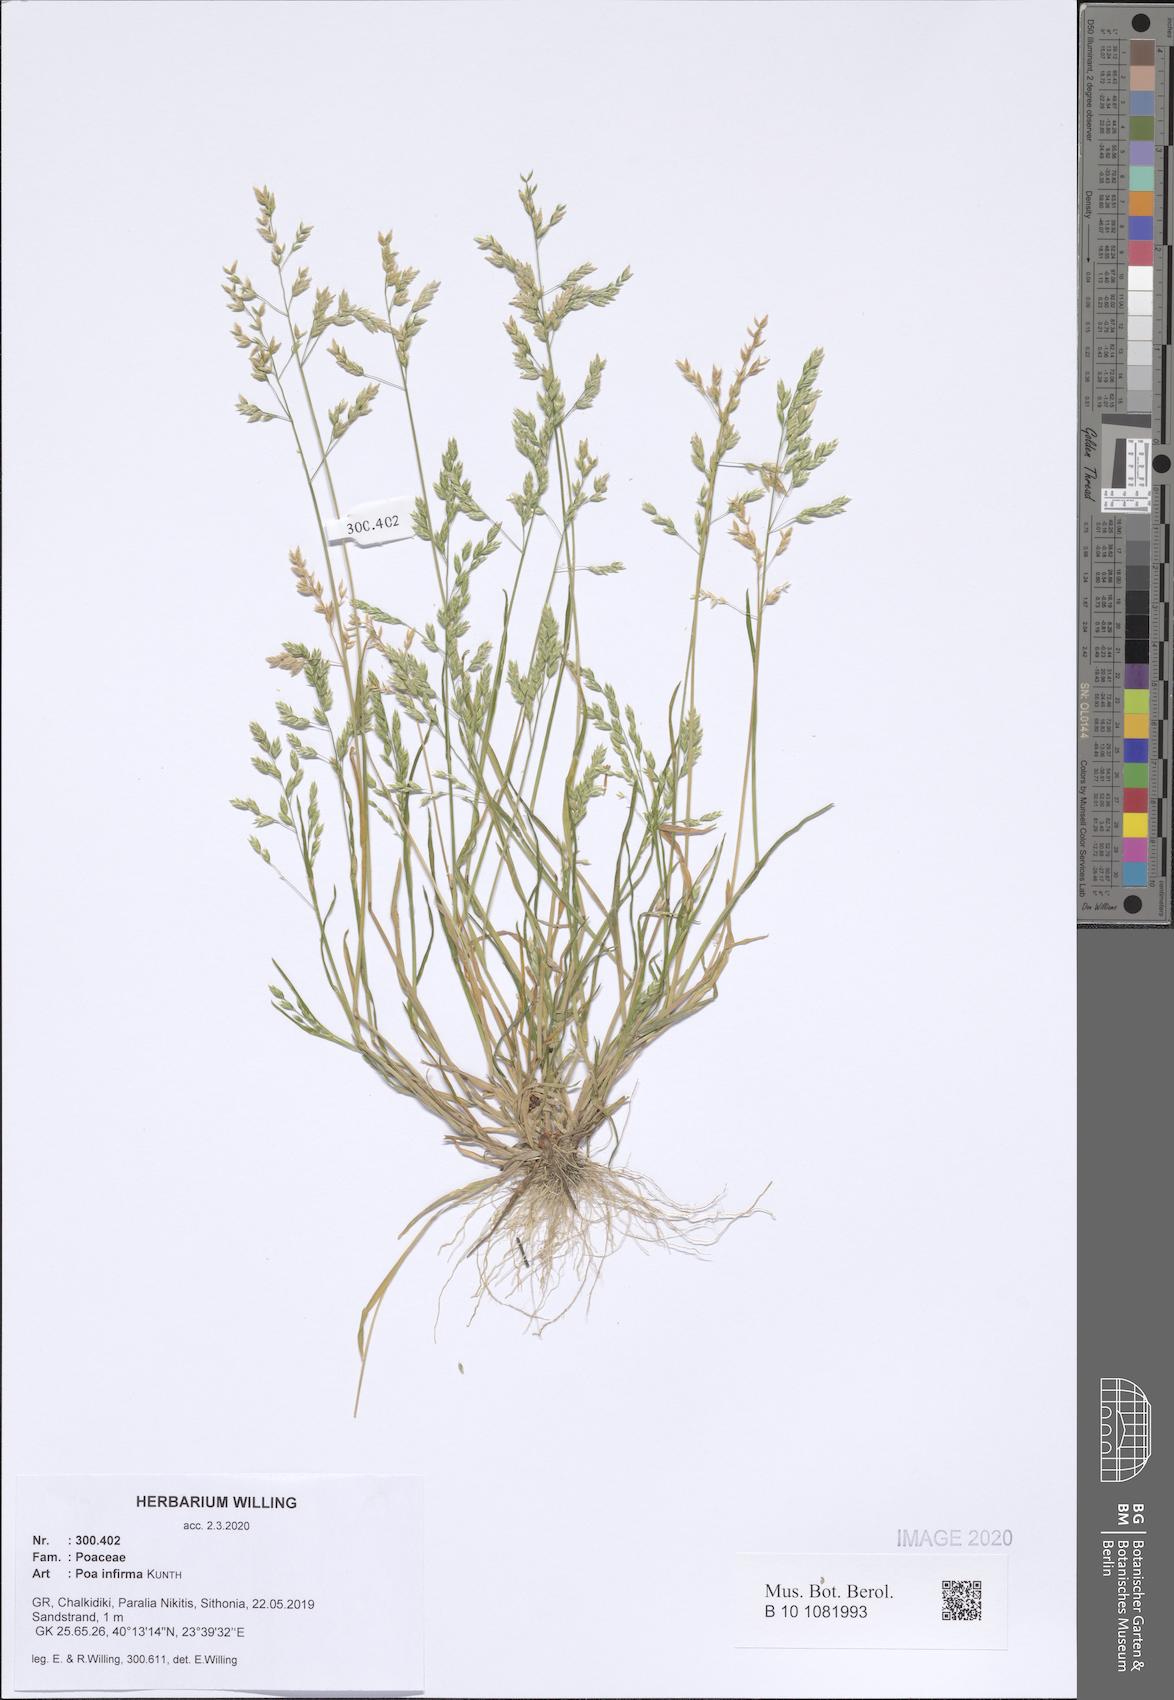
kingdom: Plantae
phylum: Tracheophyta
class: Liliopsida
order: Poales
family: Poaceae
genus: Poa
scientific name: Poa infirma
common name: Weak bluegrass
